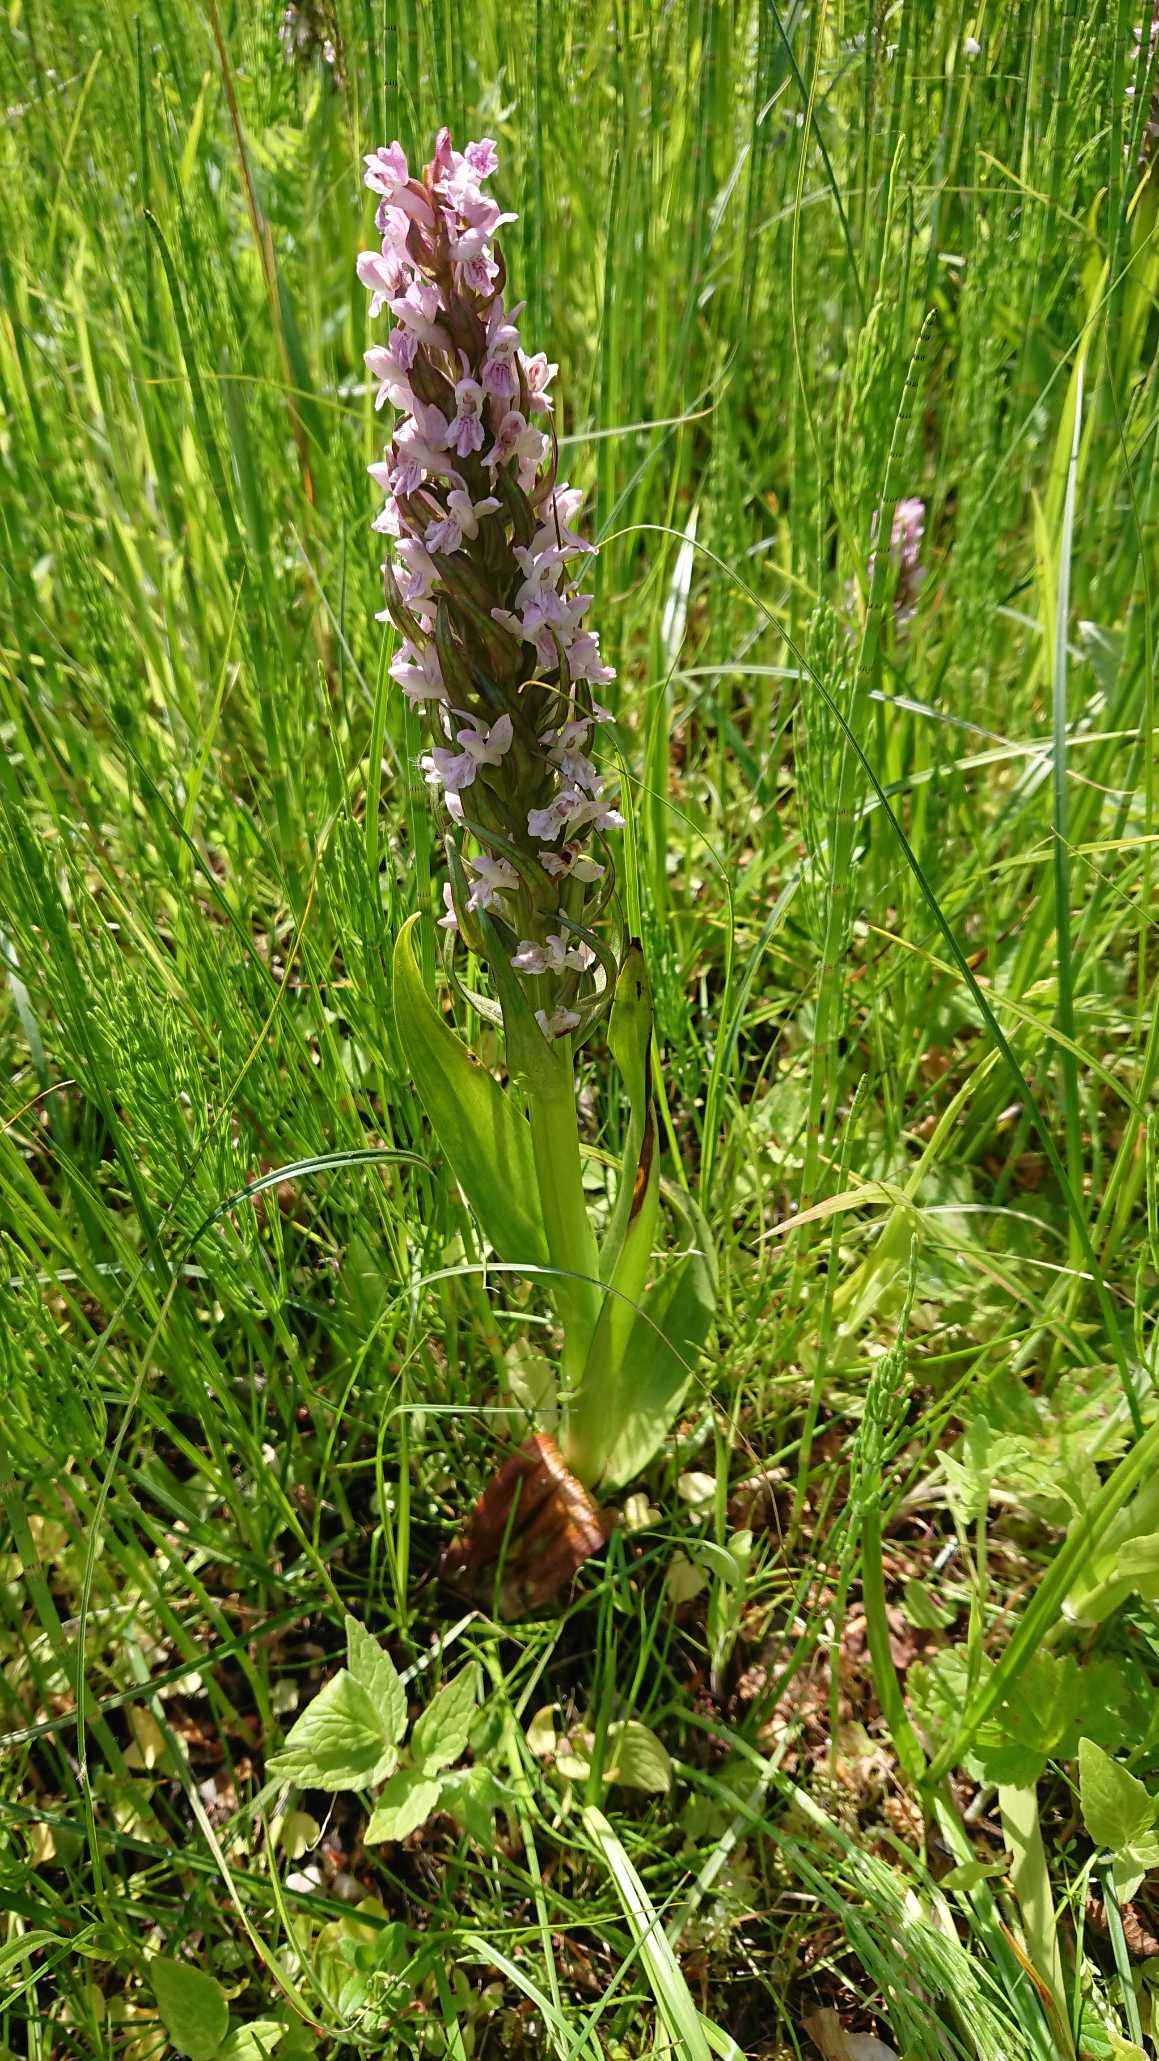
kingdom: Plantae
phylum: Tracheophyta
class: Liliopsida
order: Asparagales
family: Orchidaceae
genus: Dactylorhiza
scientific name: Dactylorhiza incarnata
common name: Kødfarvet gøgeurt
